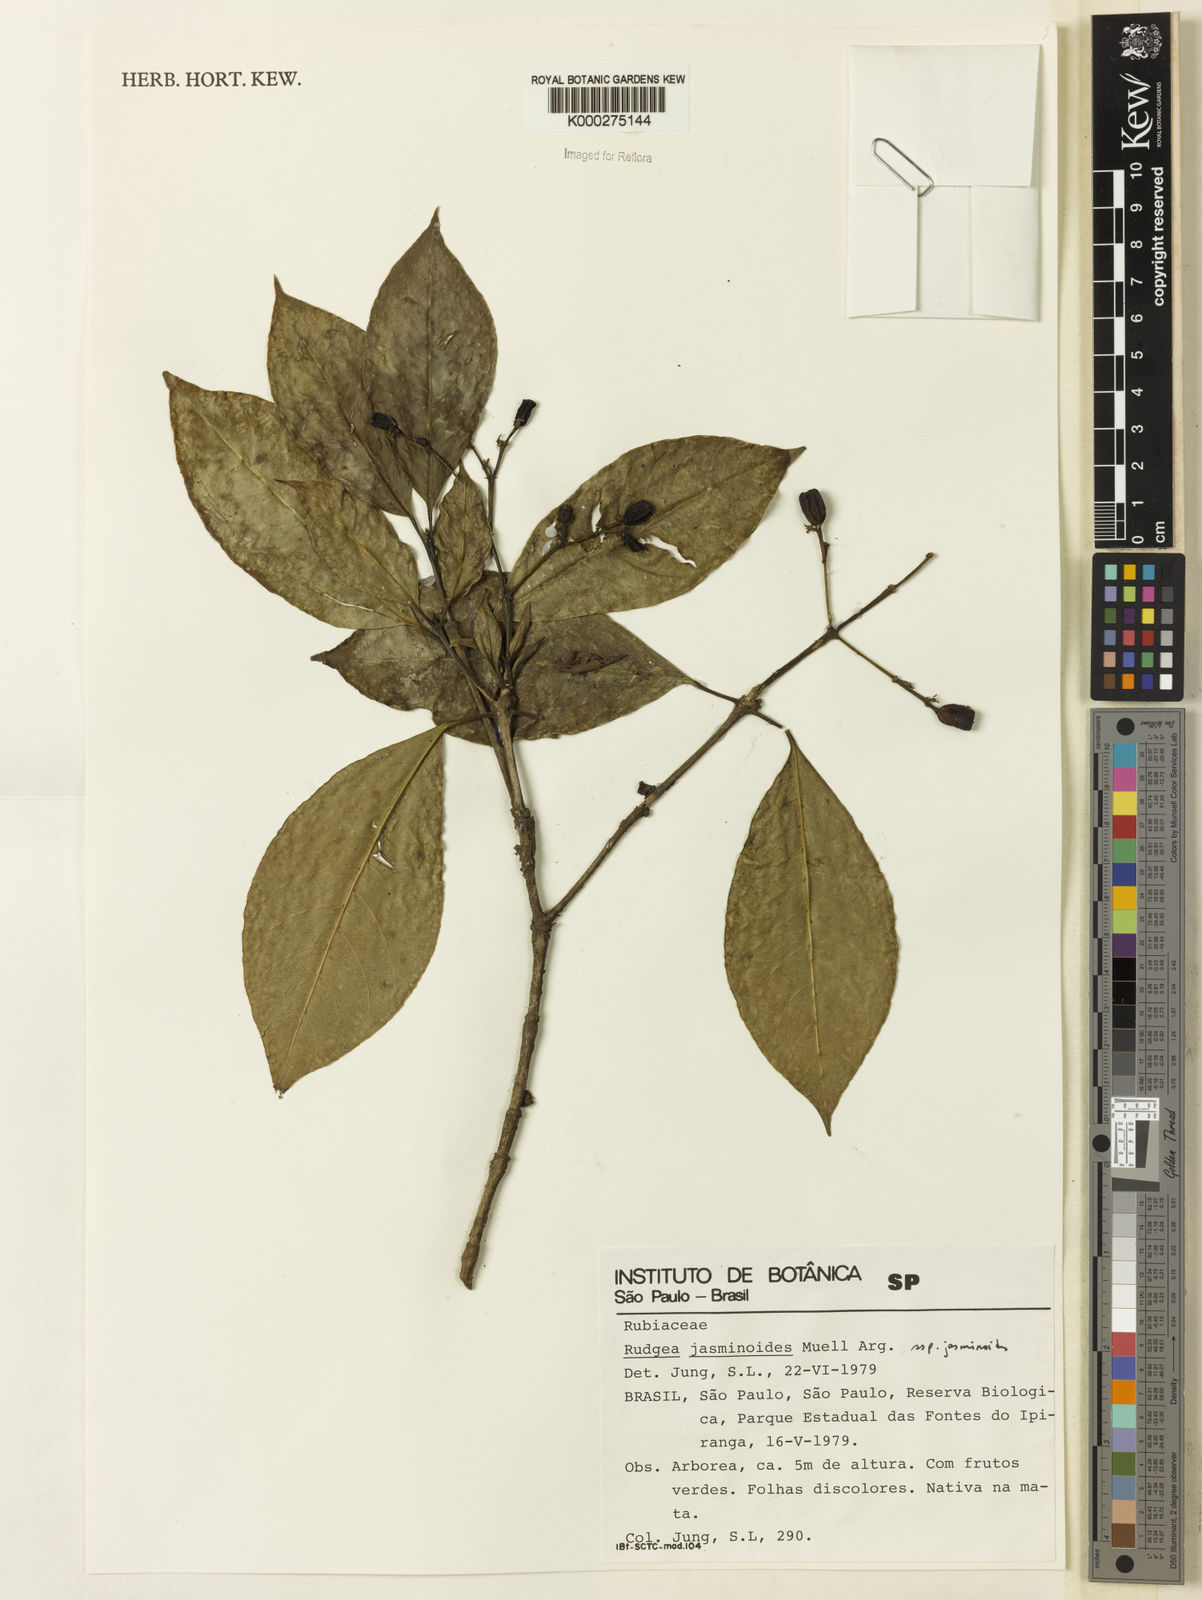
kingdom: Plantae
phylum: Tracheophyta
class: Magnoliopsida
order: Gentianales
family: Rubiaceae
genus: Rudgea
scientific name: Rudgea jasminoides
